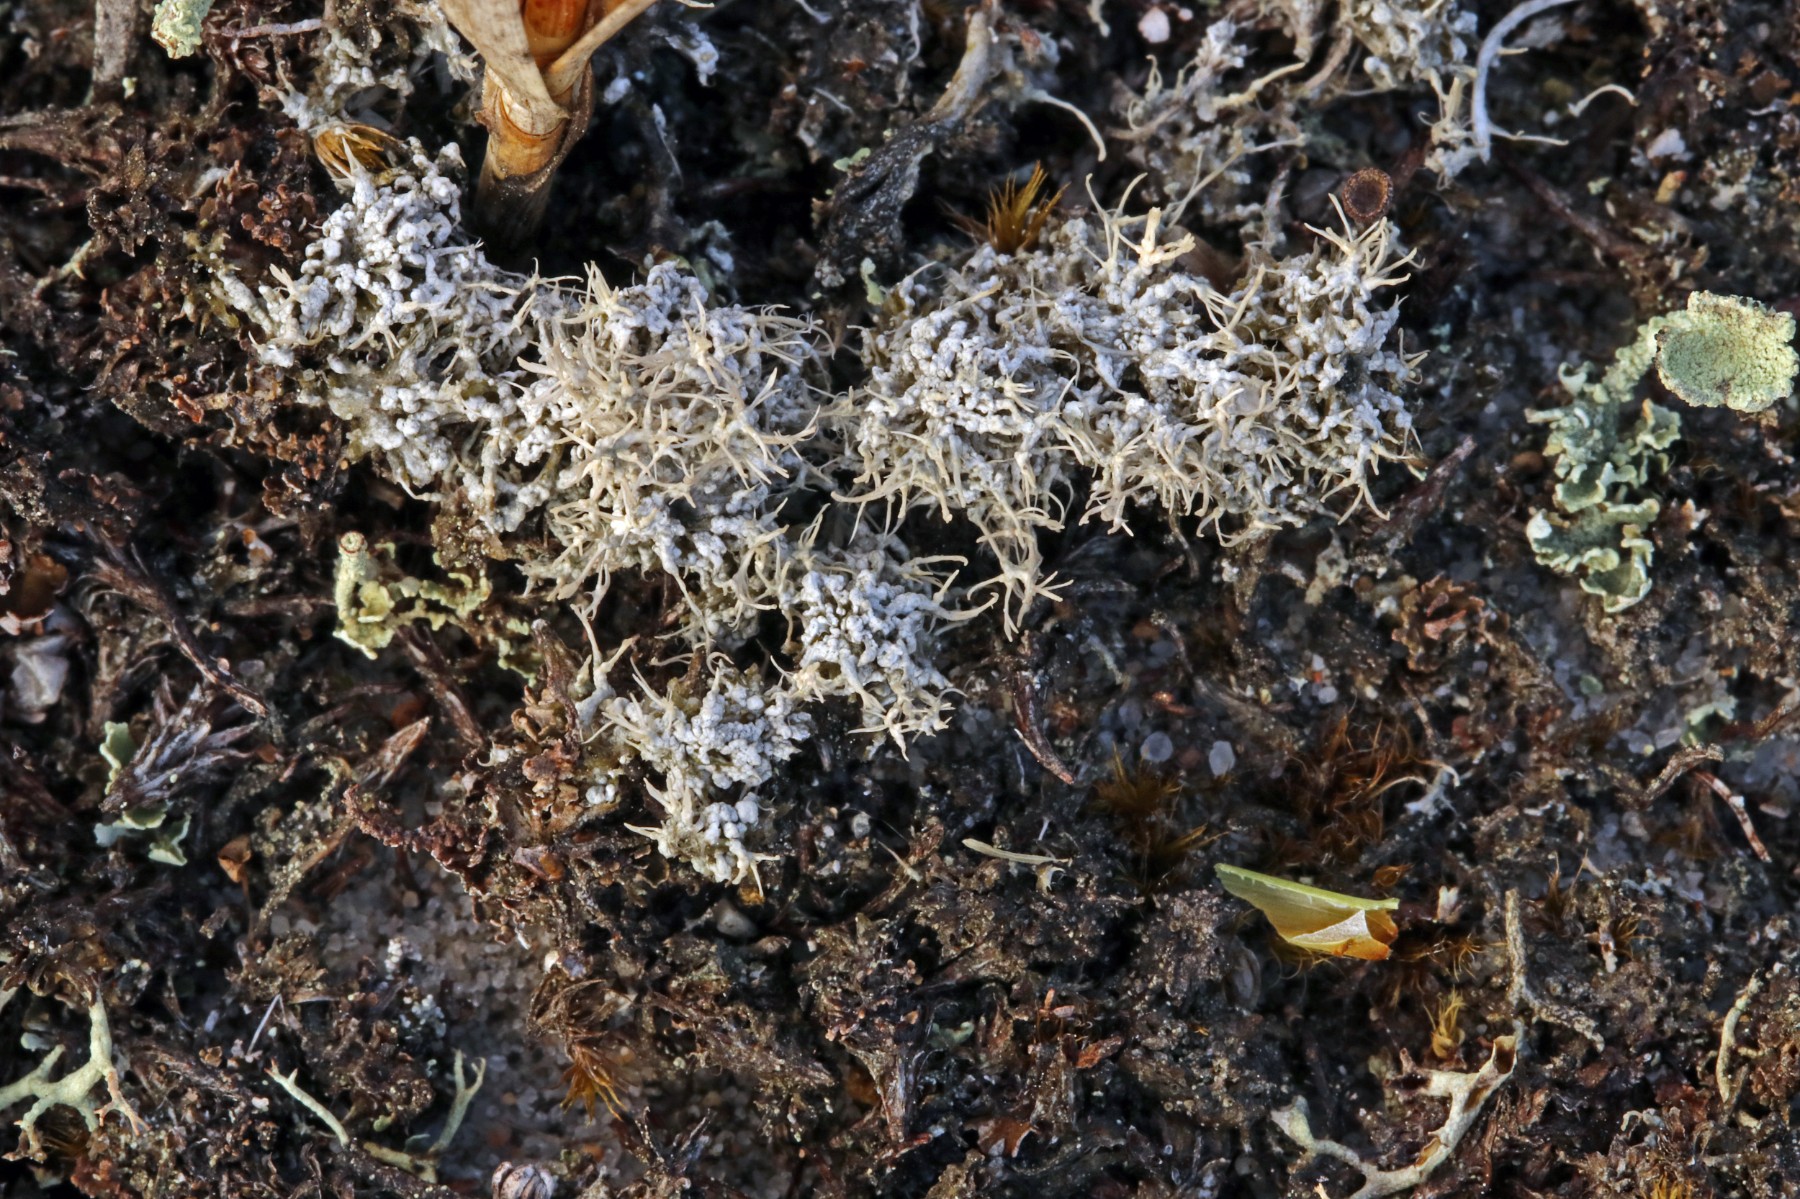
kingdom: Fungi
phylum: Ascomycota
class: Lecanoromycetes
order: Pertusariales
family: Ochrolechiaceae
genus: Ochrolechia
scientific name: Ochrolechia frigida
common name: fjeld-blegskivelav
